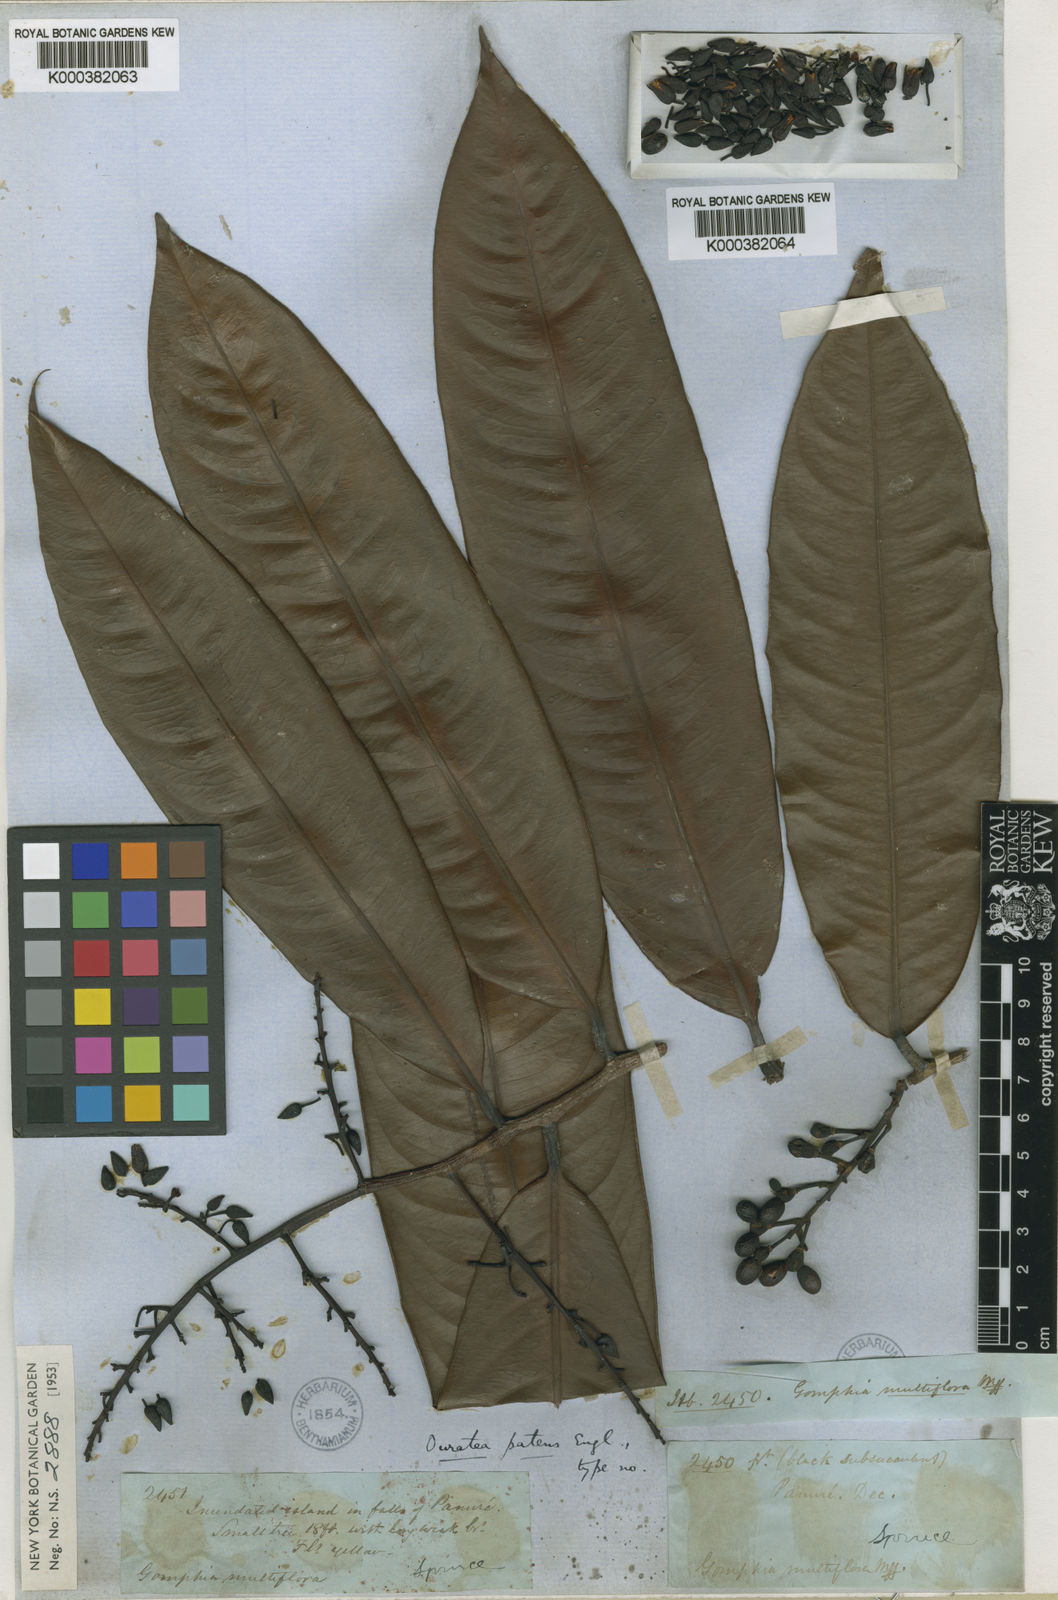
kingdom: Plantae
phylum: Tracheophyta
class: Magnoliopsida
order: Malpighiales
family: Ochnaceae
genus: Ouratea
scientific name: Ouratea patens
